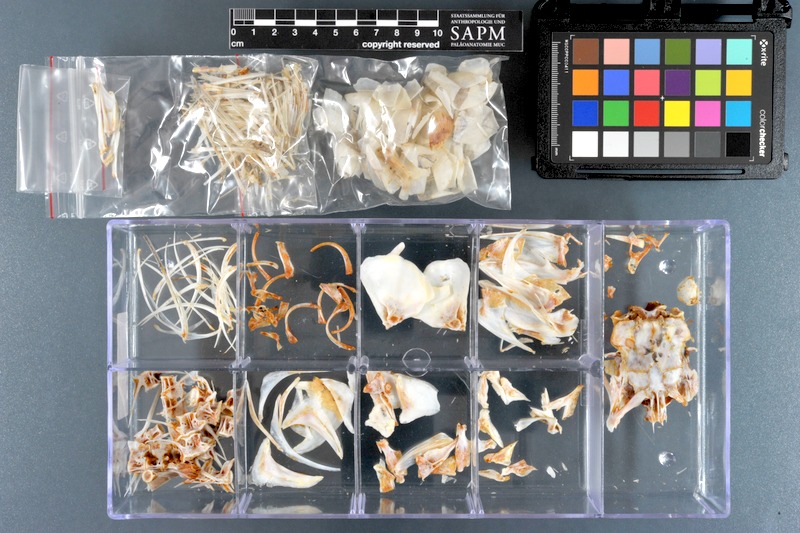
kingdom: Animalia
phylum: Chordata
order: Mugiliformes
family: Mugilidae
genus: Paramugil
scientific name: Paramugil parmatus
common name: Broad-mouthed mullet
